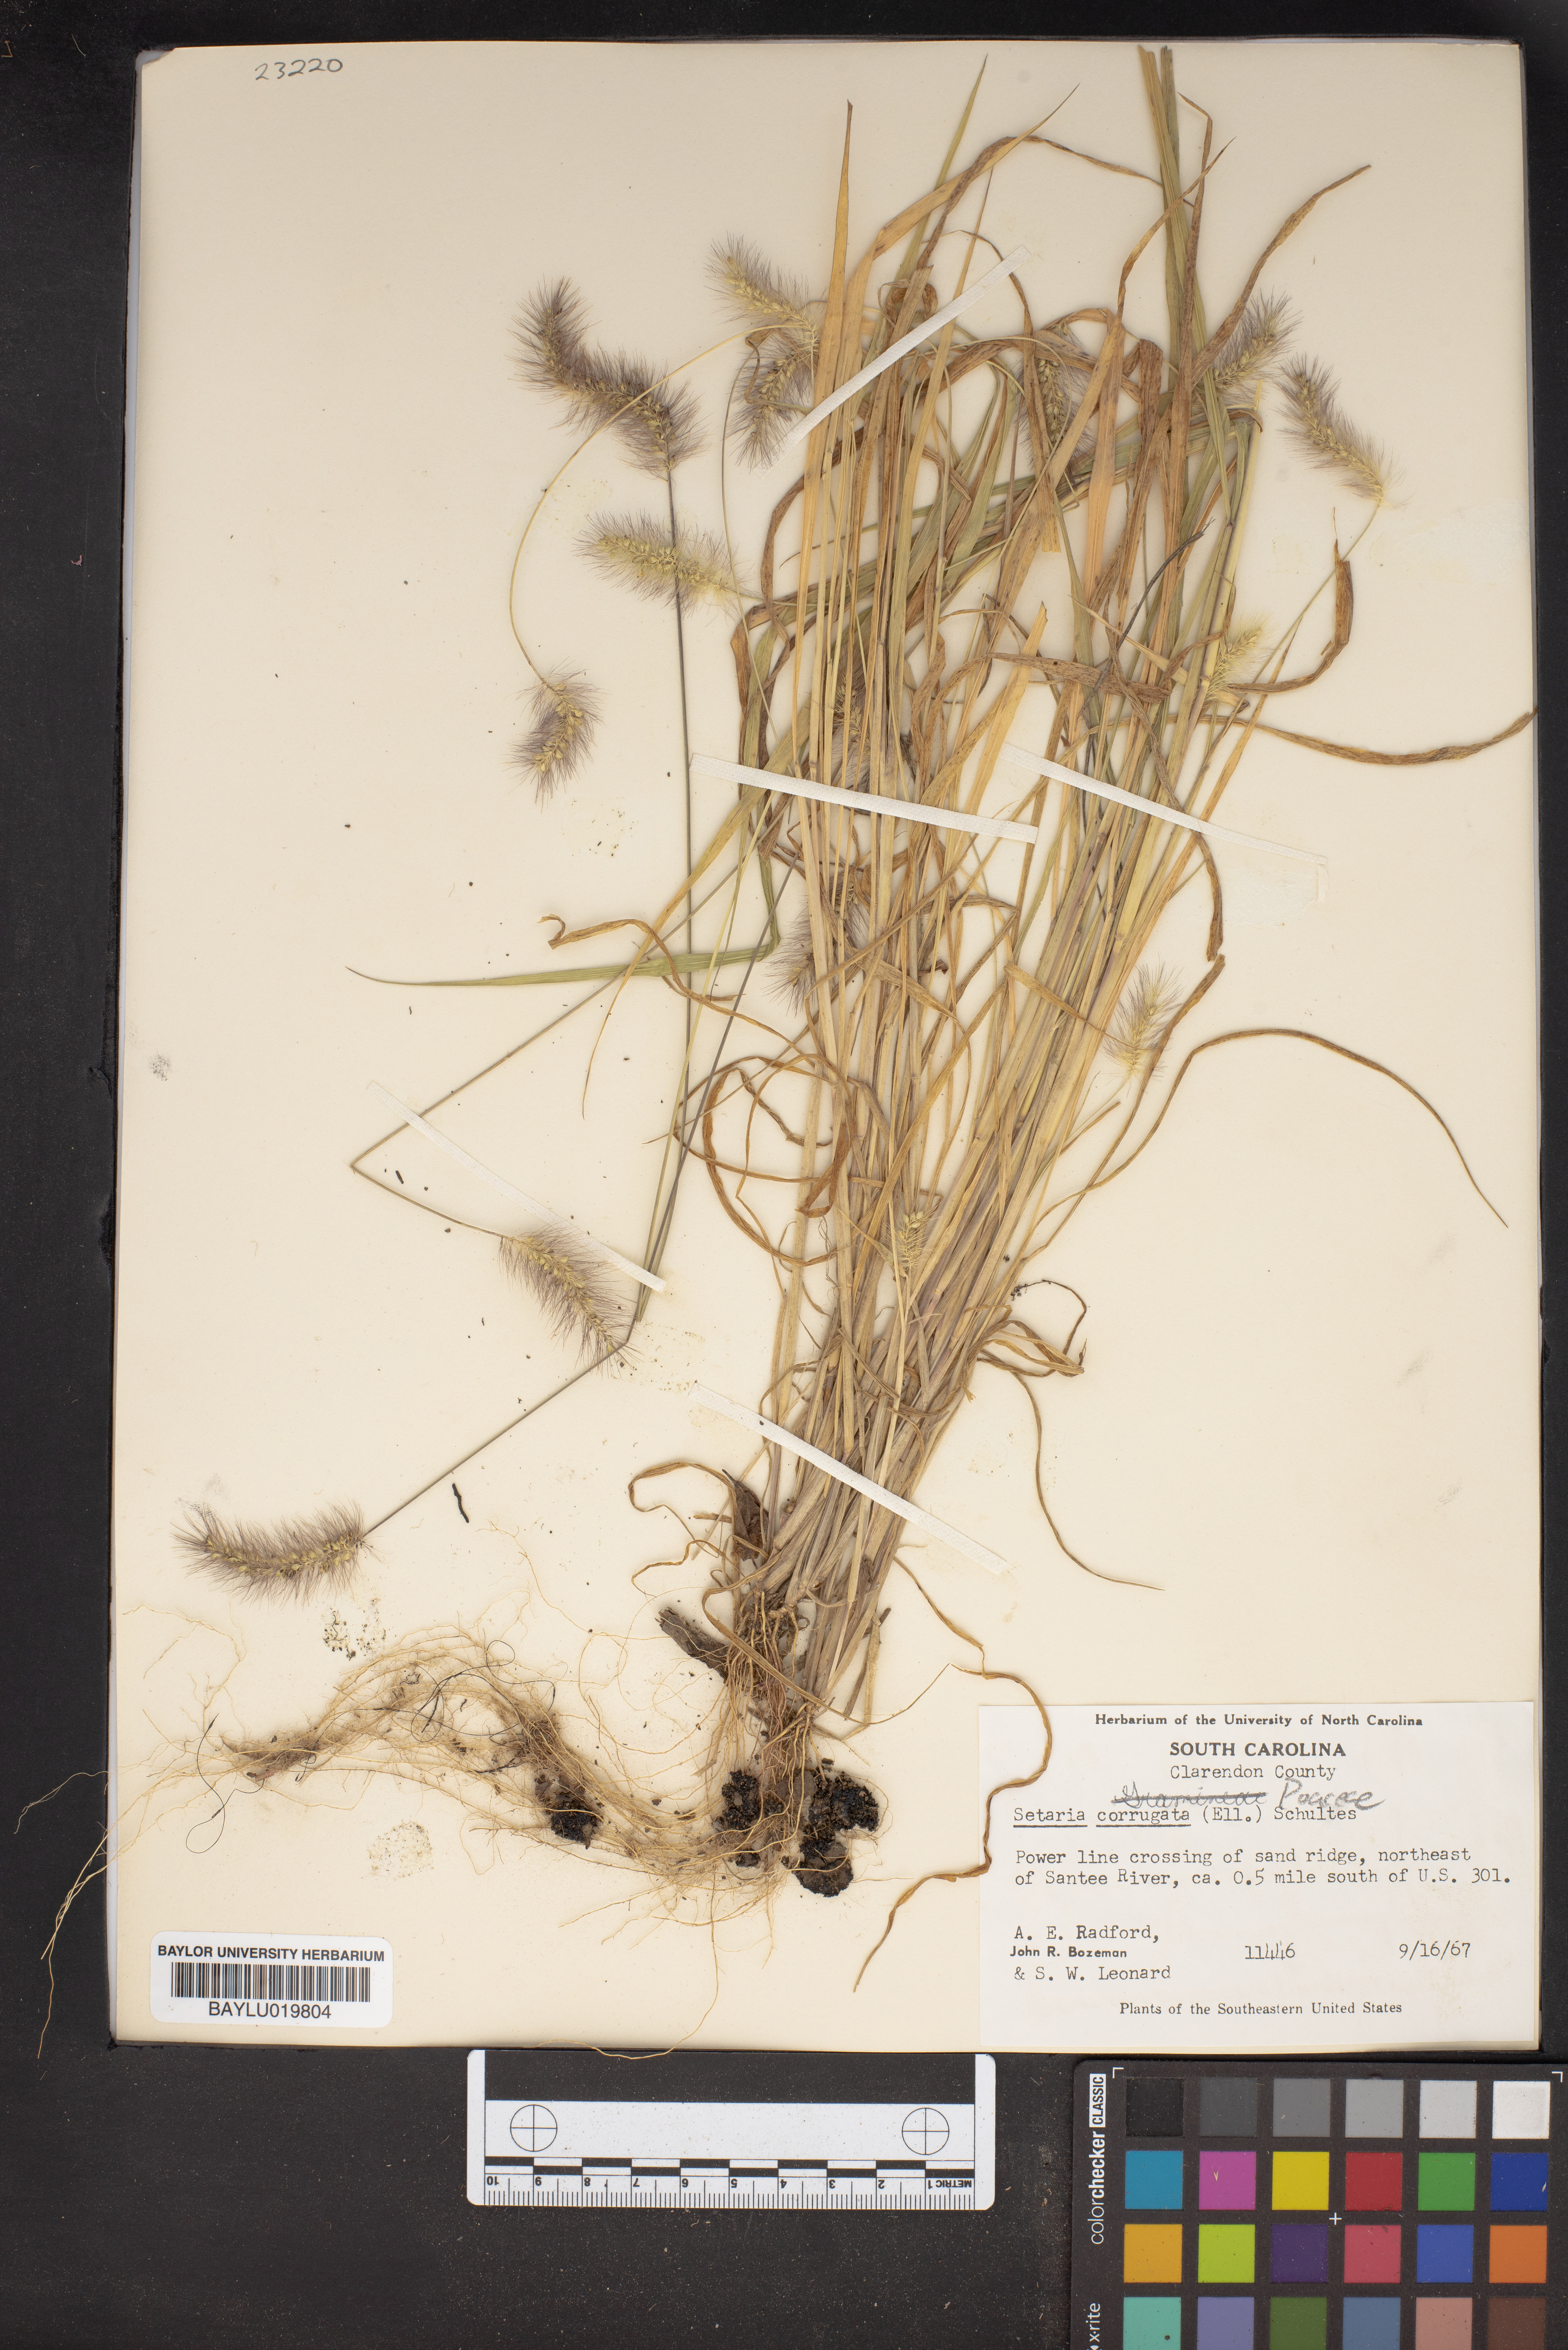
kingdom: Plantae
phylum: Tracheophyta
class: Liliopsida
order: Poales
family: Poaceae
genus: Setaria
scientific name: Setaria corrugata
